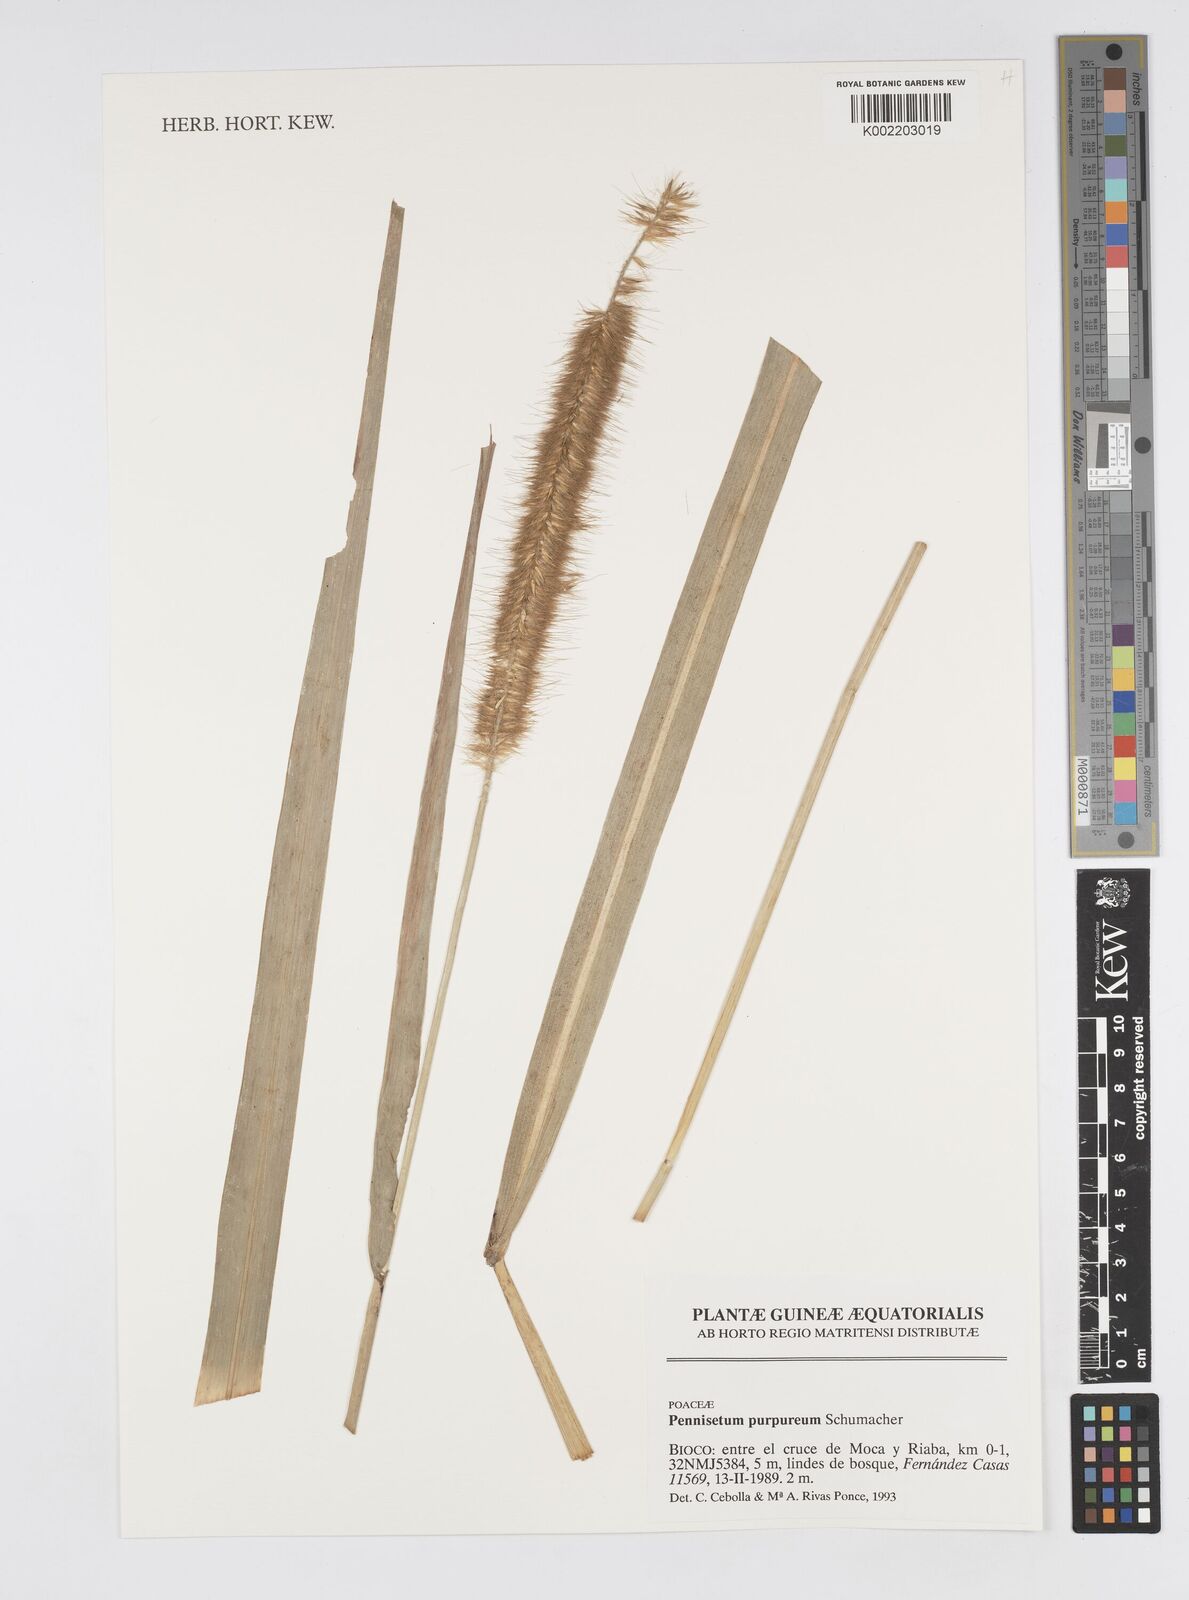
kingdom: Plantae
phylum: Tracheophyta
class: Liliopsida
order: Poales
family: Poaceae
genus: Cenchrus
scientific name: Cenchrus purpureus
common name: Elephant grass
